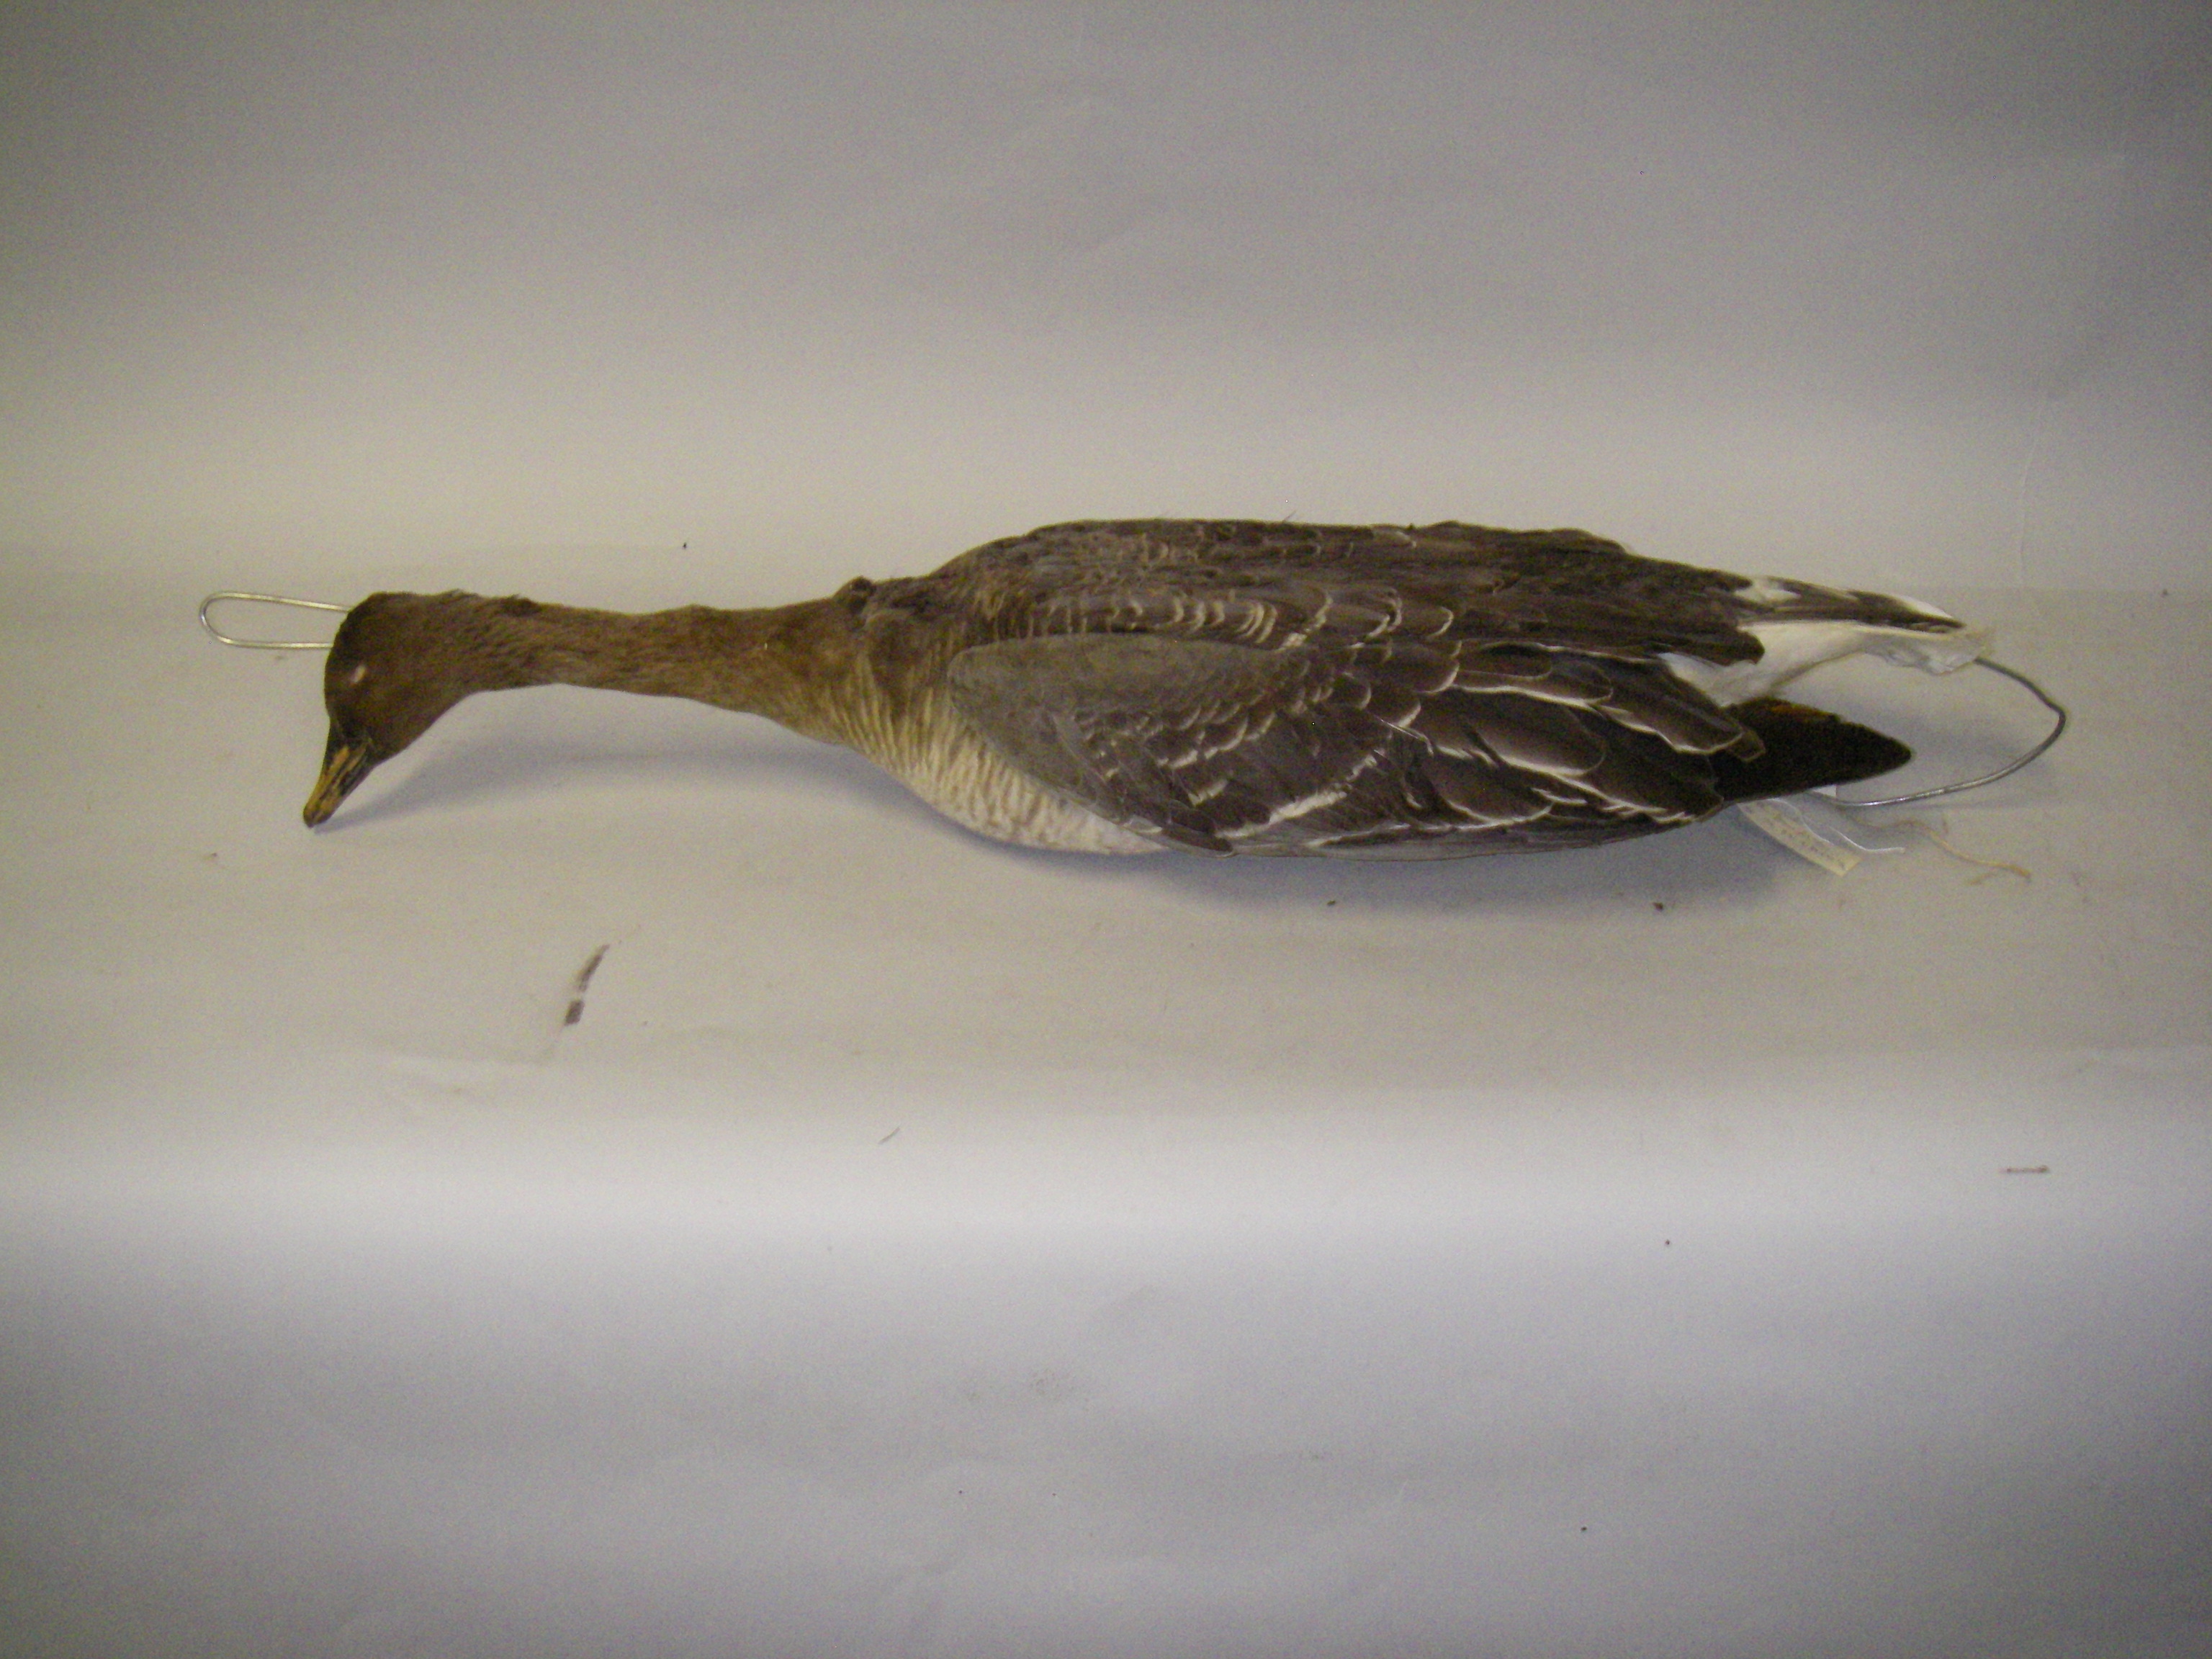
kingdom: Animalia
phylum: Chordata
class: Aves
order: Anseriformes
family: Anatidae
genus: Anser
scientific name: Anser fabalis
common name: Bean goose
